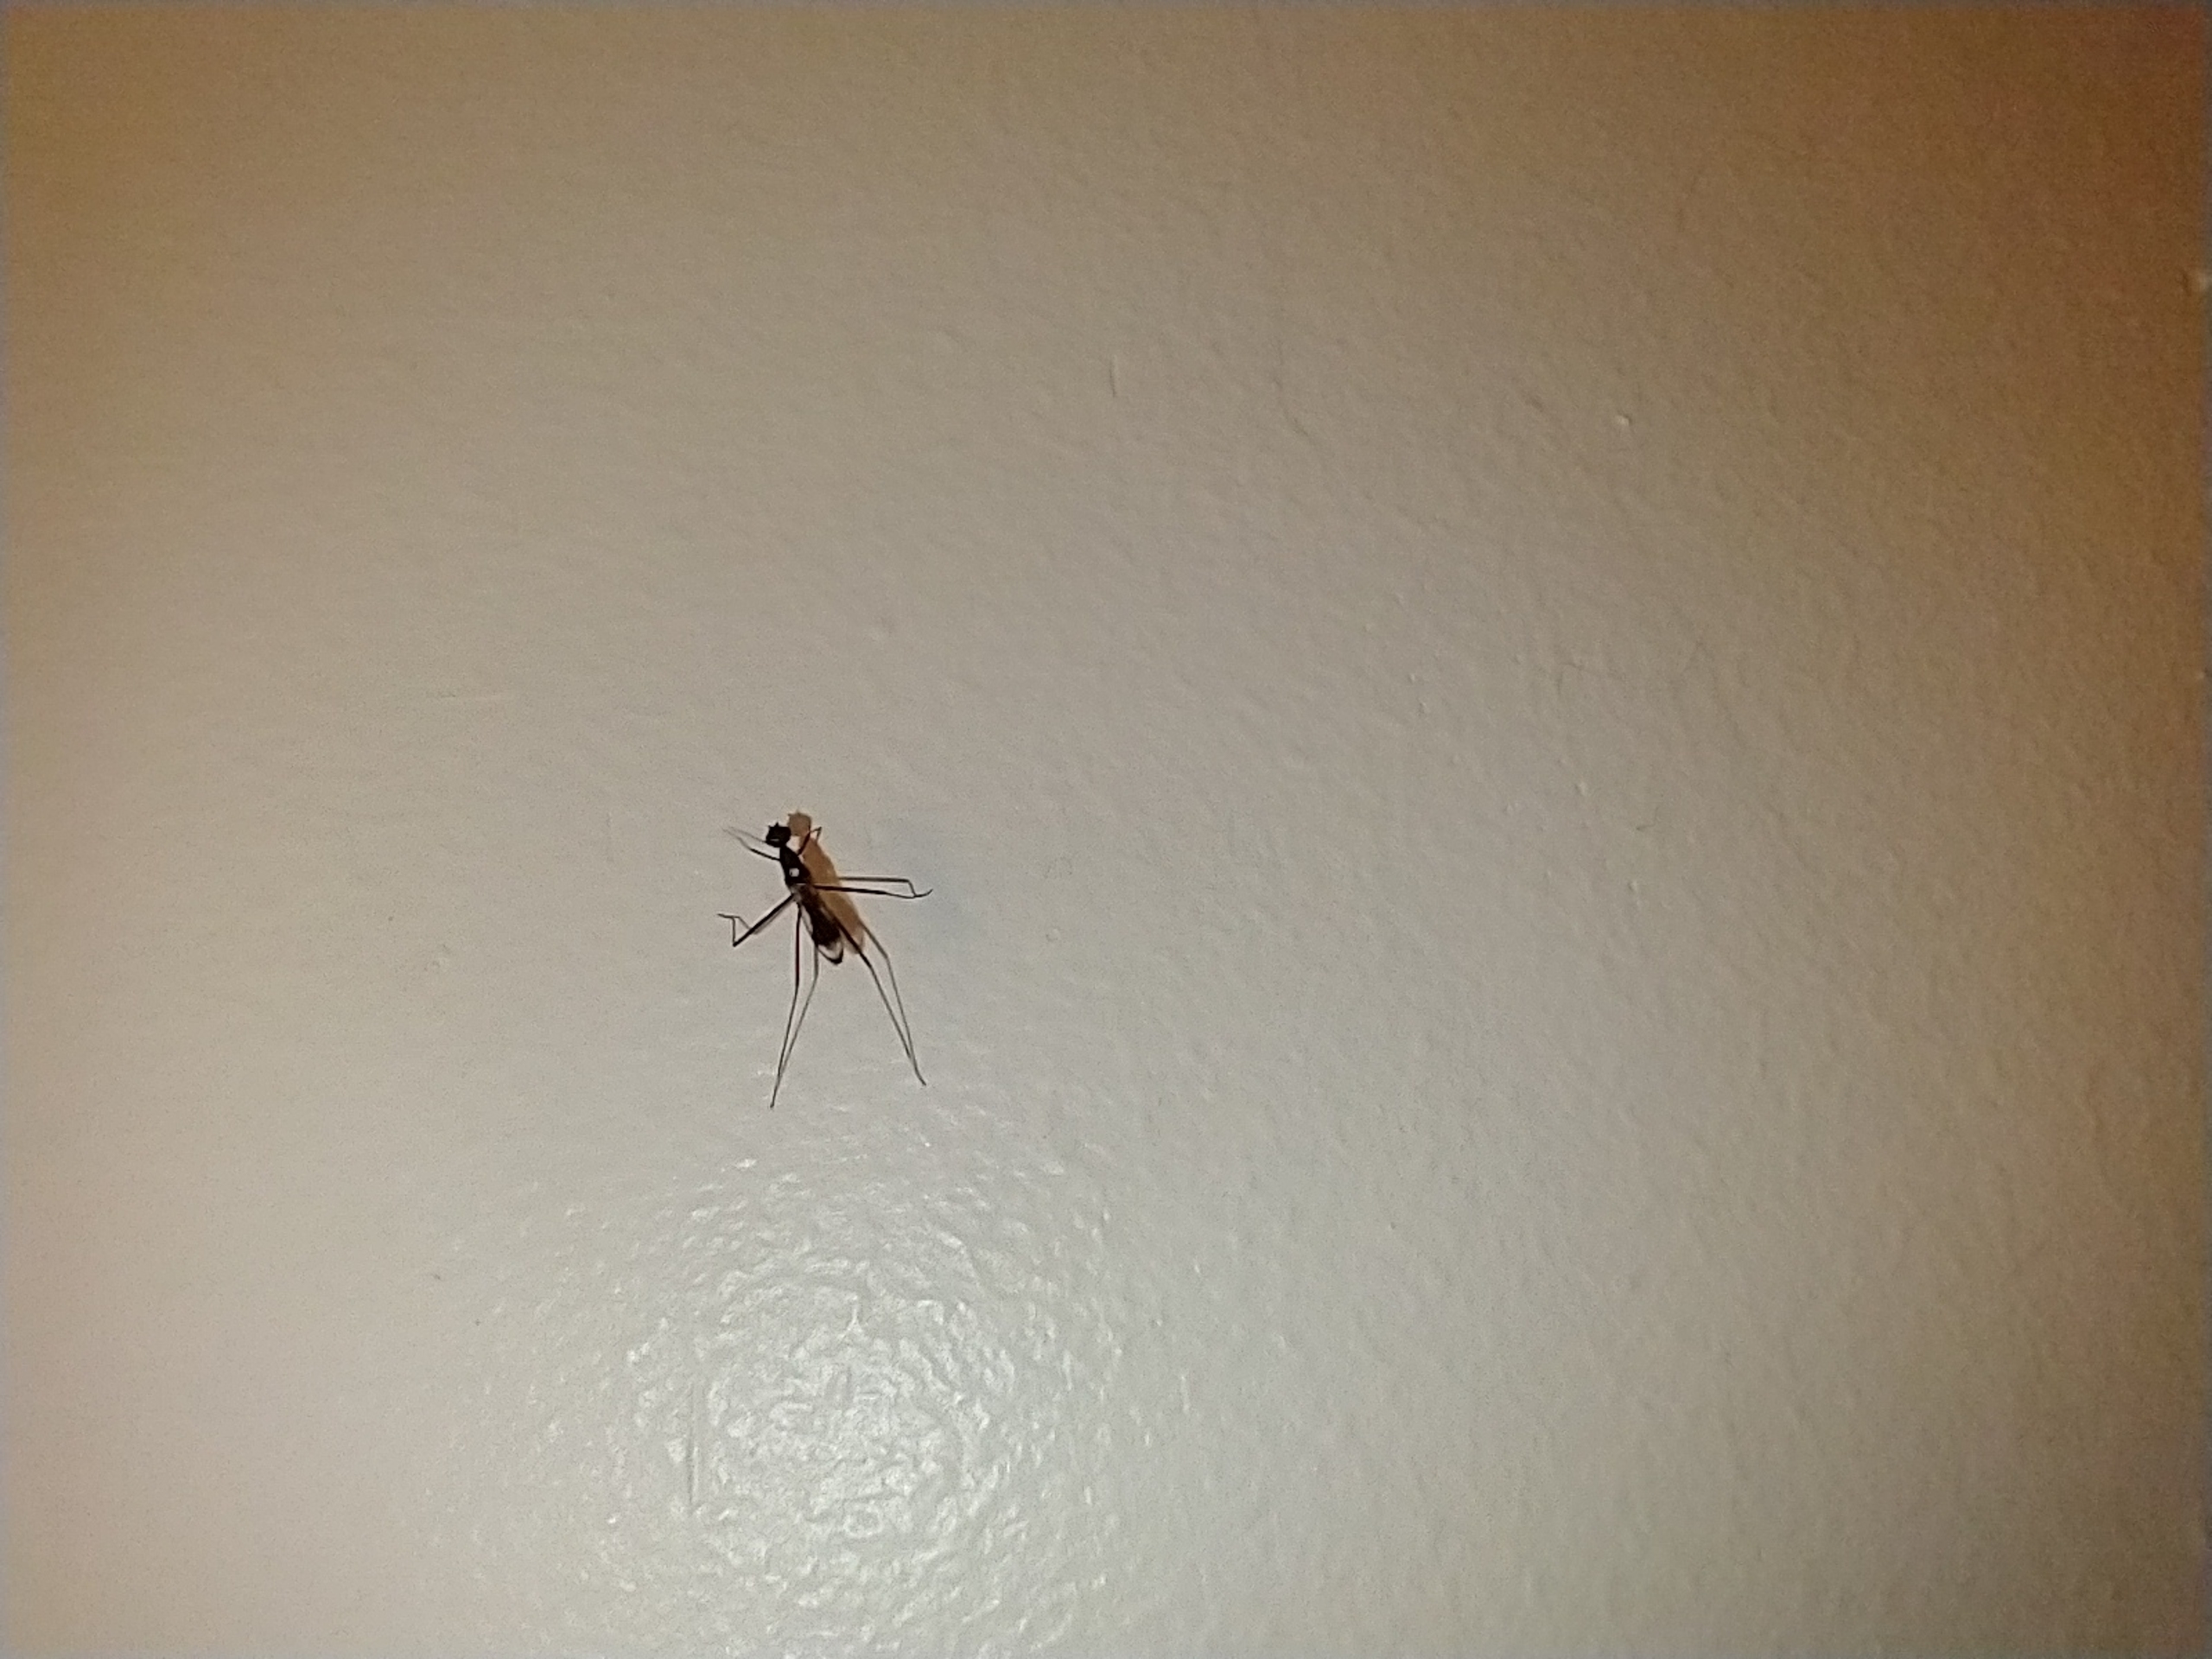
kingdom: Animalia
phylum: Arthropoda
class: Insecta
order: Diptera
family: Micropezidae
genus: Rainieria
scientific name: Rainieria calceata
